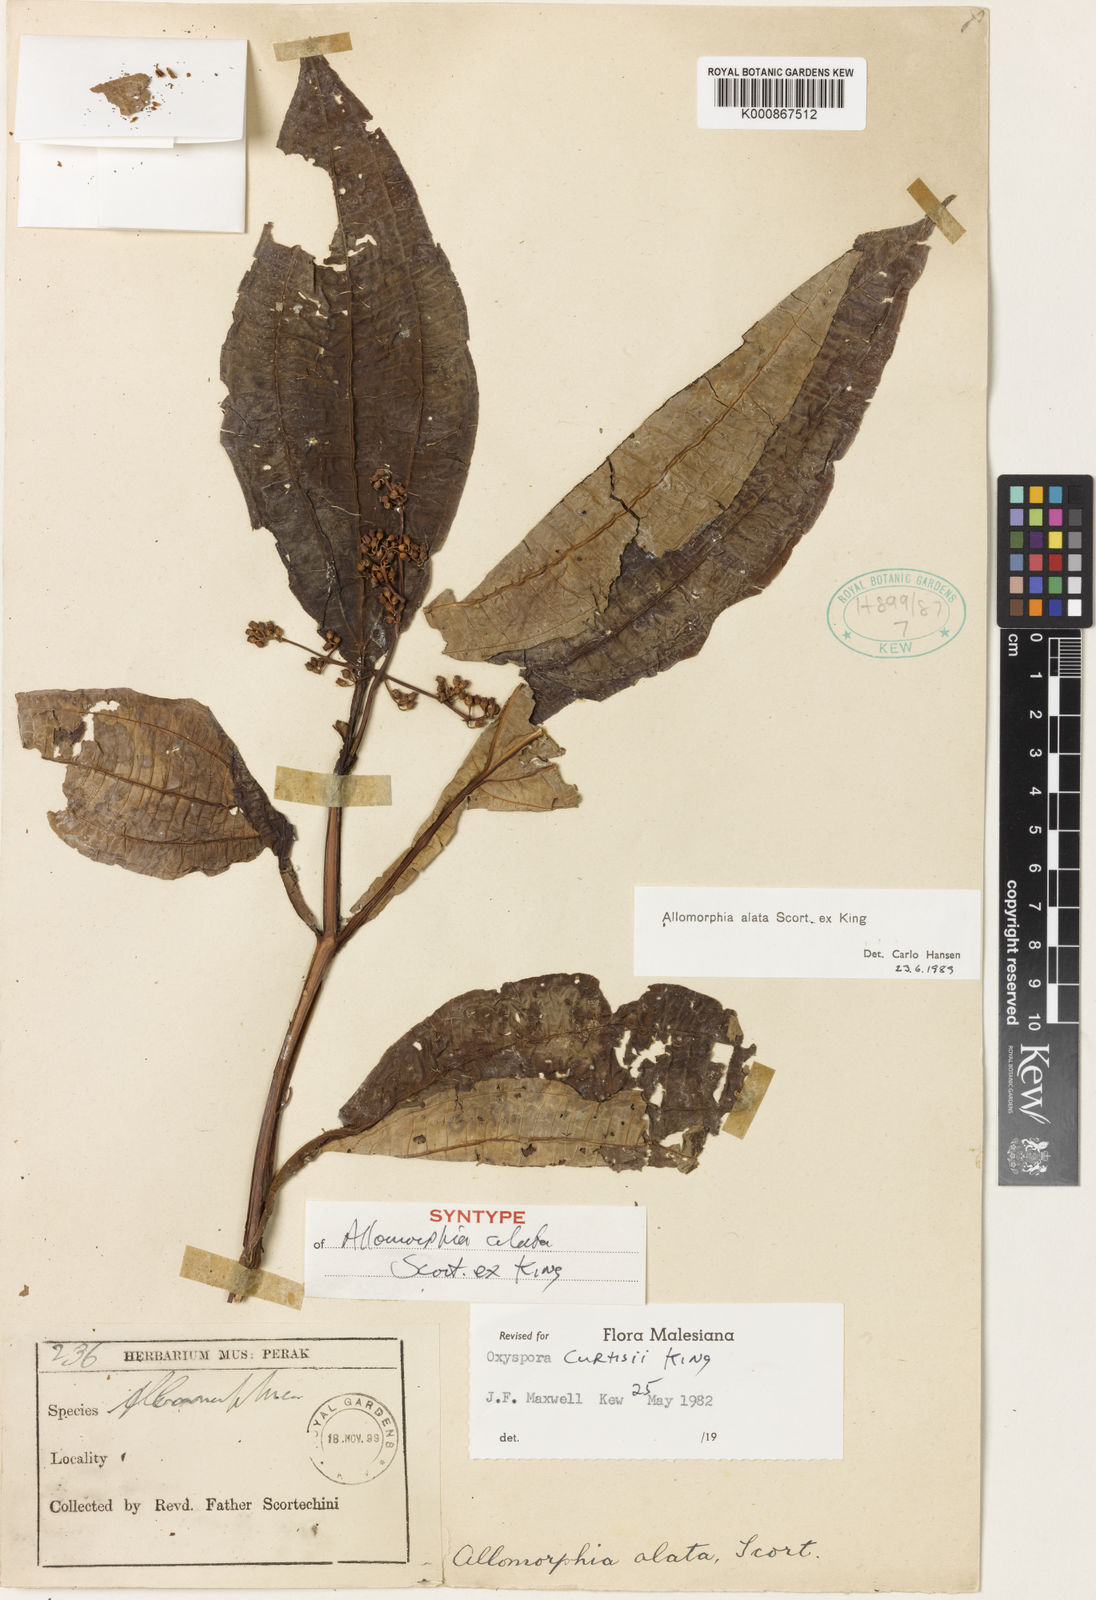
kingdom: Plantae
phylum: Tracheophyta
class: Magnoliopsida
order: Myrtales
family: Melastomataceae
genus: Allomorphia
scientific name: Allomorphia curtisii
